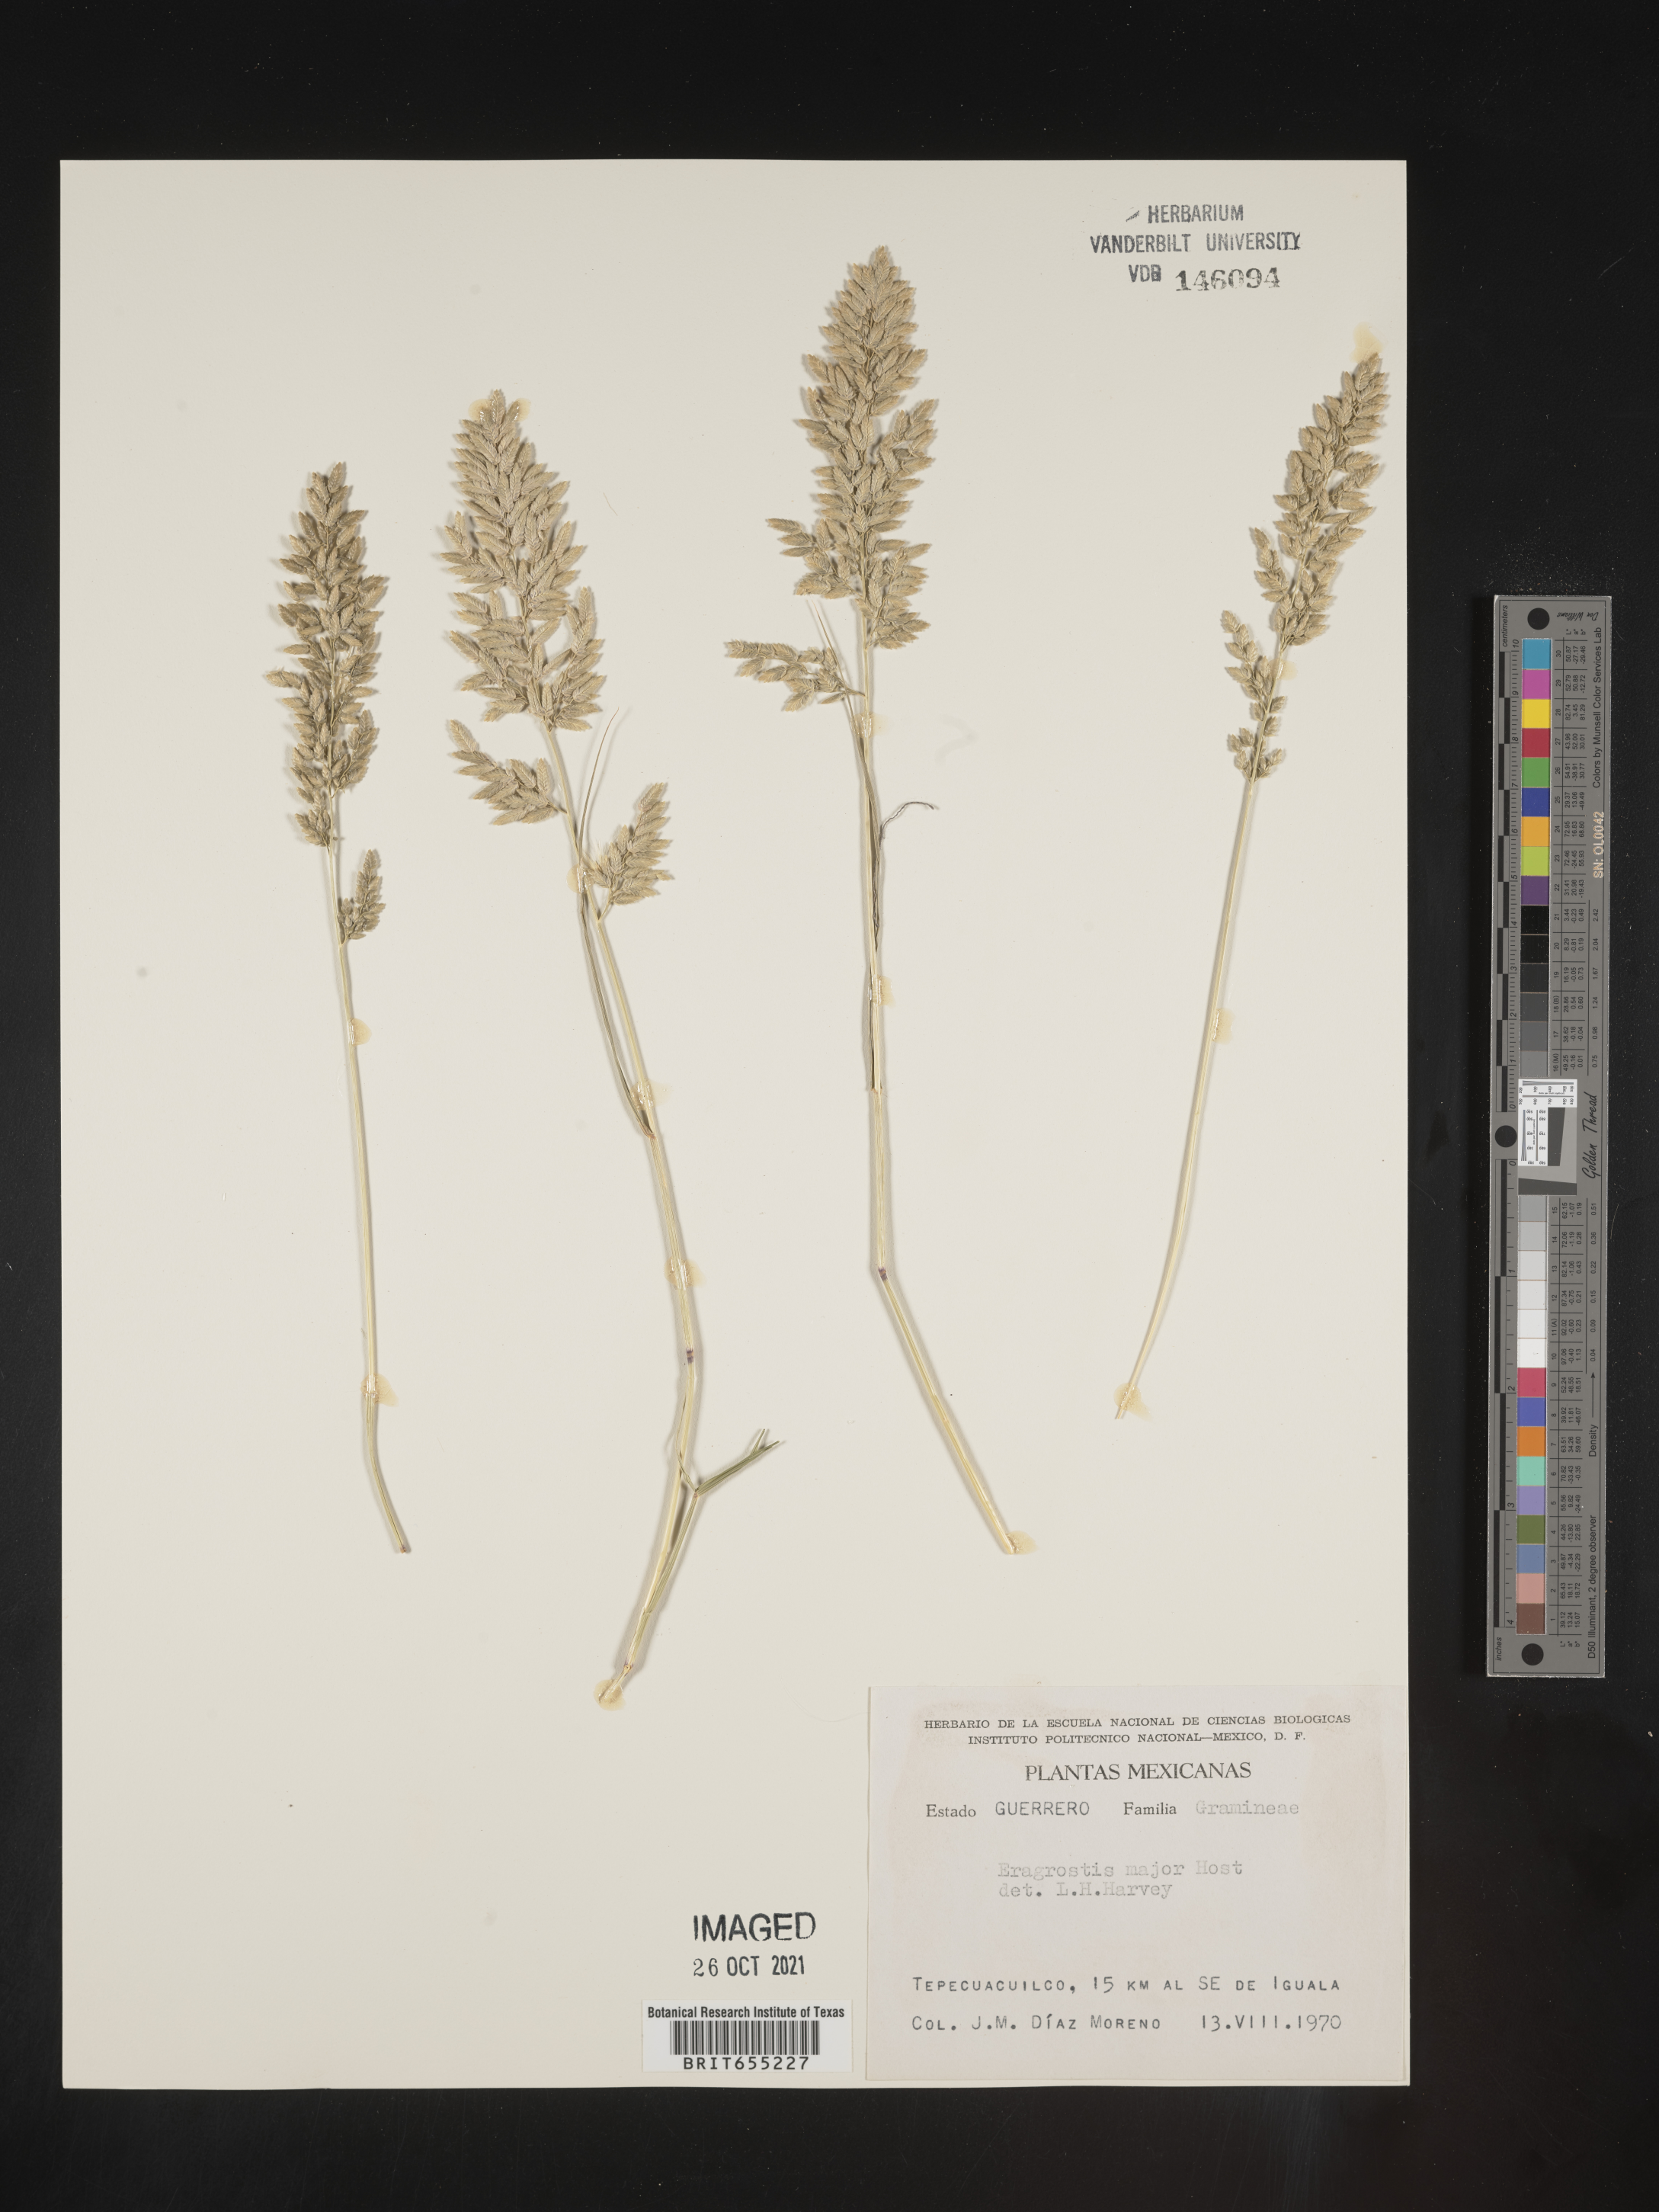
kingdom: Plantae
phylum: Tracheophyta
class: Liliopsida
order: Poales
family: Poaceae
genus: Eragrostis
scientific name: Eragrostis
